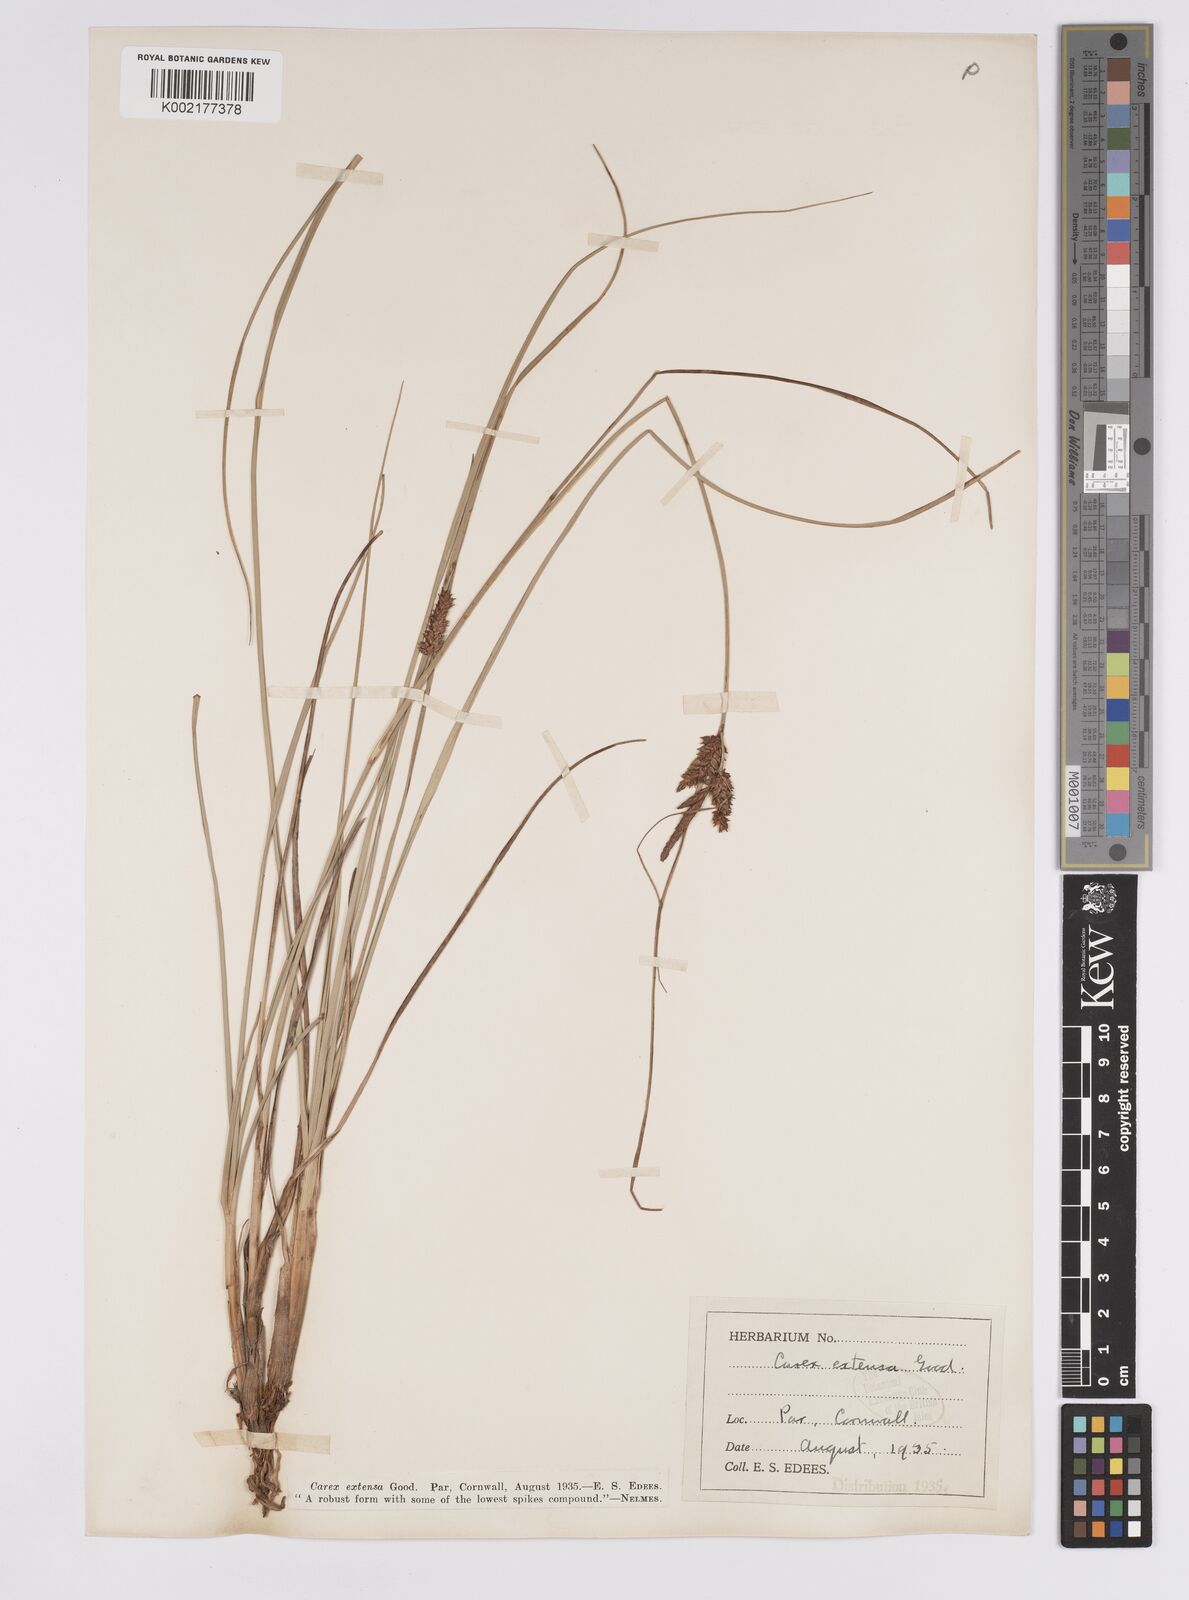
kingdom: Plantae
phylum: Tracheophyta
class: Liliopsida
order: Poales
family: Cyperaceae
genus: Carex
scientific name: Carex extensa
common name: Long-bracted sedge
